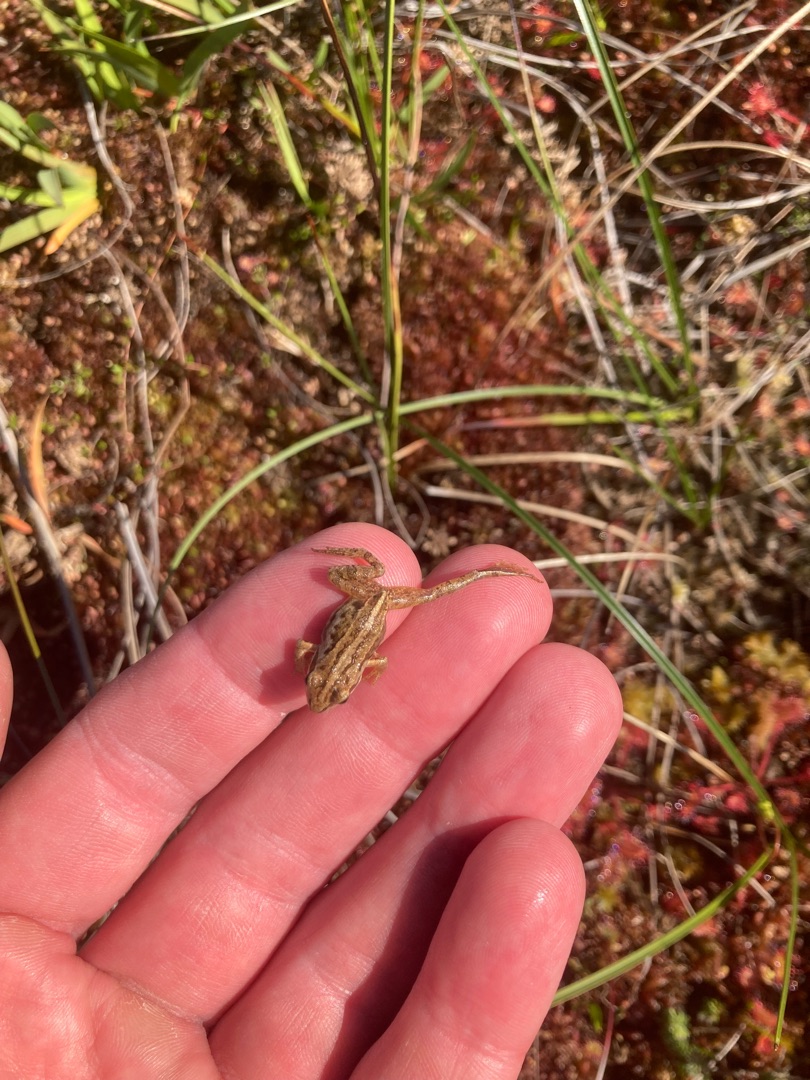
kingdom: Animalia
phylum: Chordata
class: Amphibia
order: Anura
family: Ranidae
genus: Rana
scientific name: Rana arvalis
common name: Spidssnudet frø
